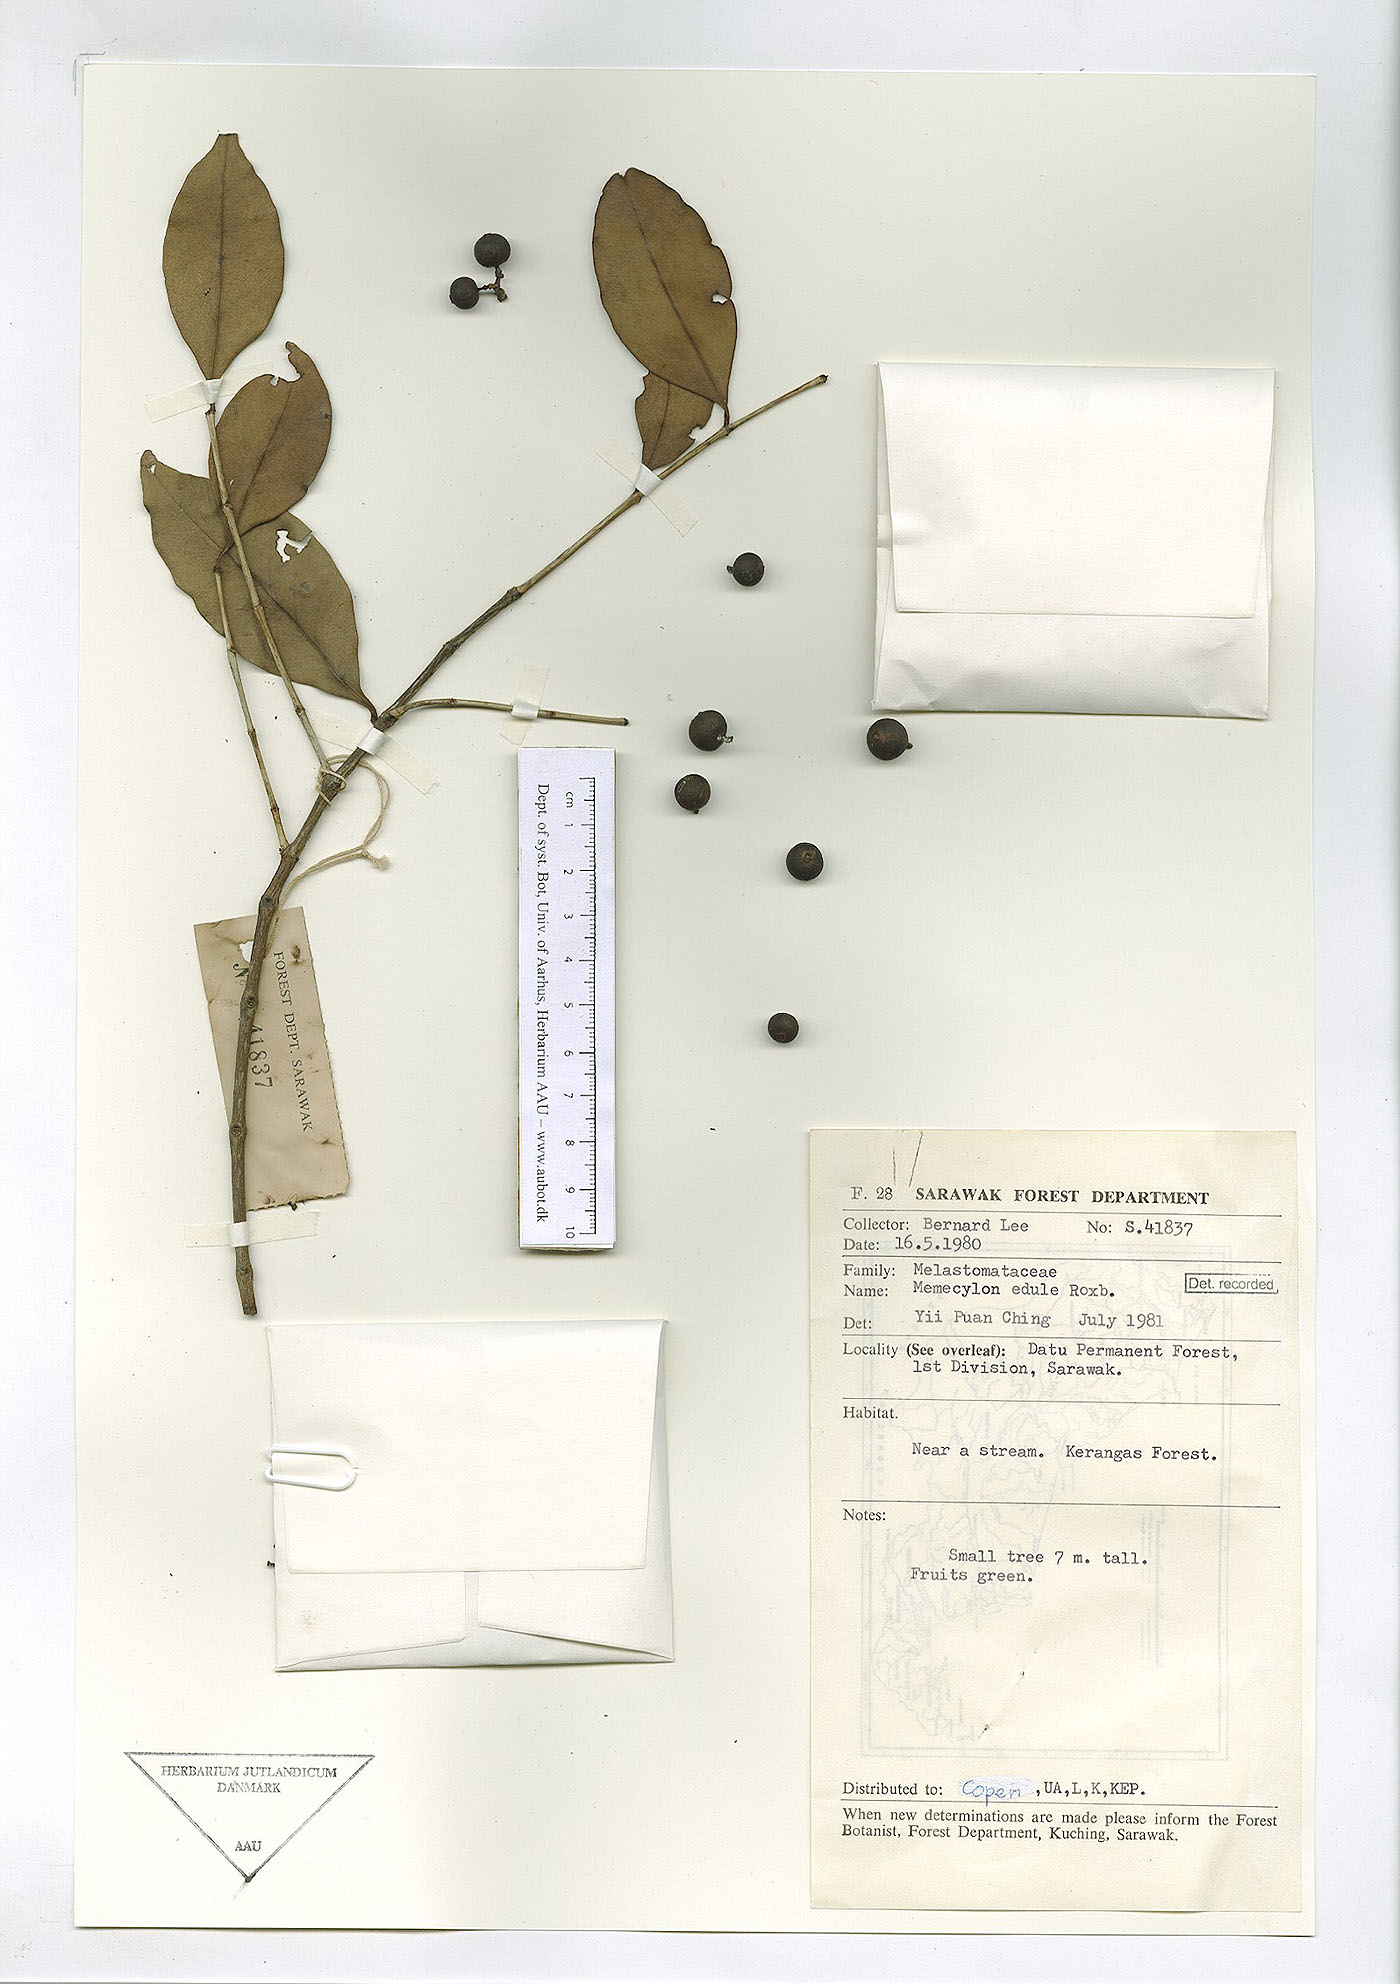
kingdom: Plantae
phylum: Tracheophyta
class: Magnoliopsida
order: Myrtales
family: Melastomataceae
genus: Memecylon
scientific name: Memecylon edule
